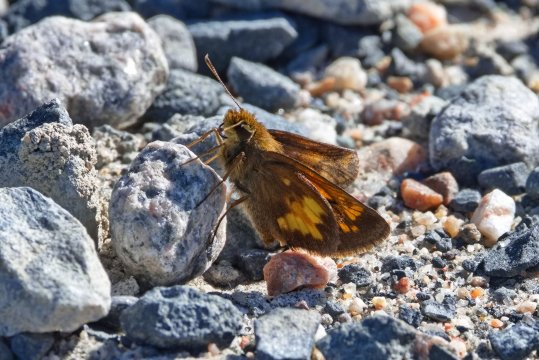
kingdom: Animalia
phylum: Arthropoda
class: Insecta
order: Lepidoptera
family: Hesperiidae
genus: Lon
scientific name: Lon hobomok
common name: Hobomok Skipper
